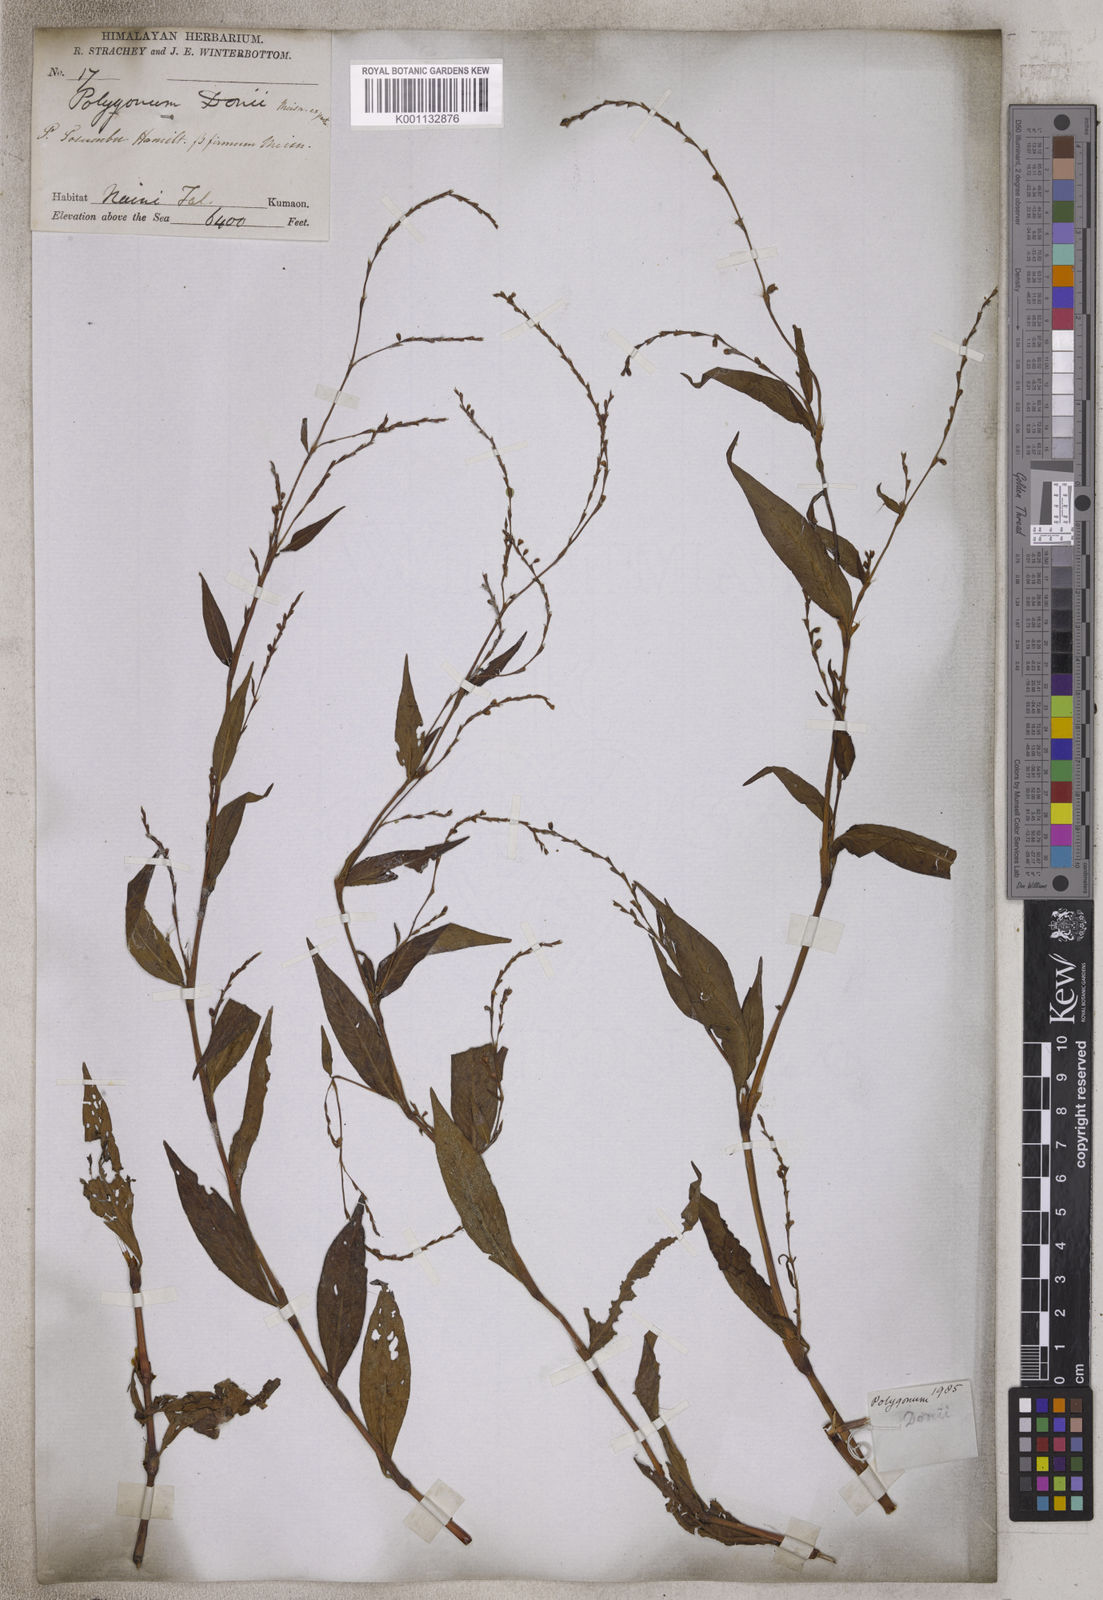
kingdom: Plantae
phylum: Tracheophyta
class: Magnoliopsida
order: Caryophyllales
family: Polygonaceae
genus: Persicaria
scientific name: Persicaria pubescens
